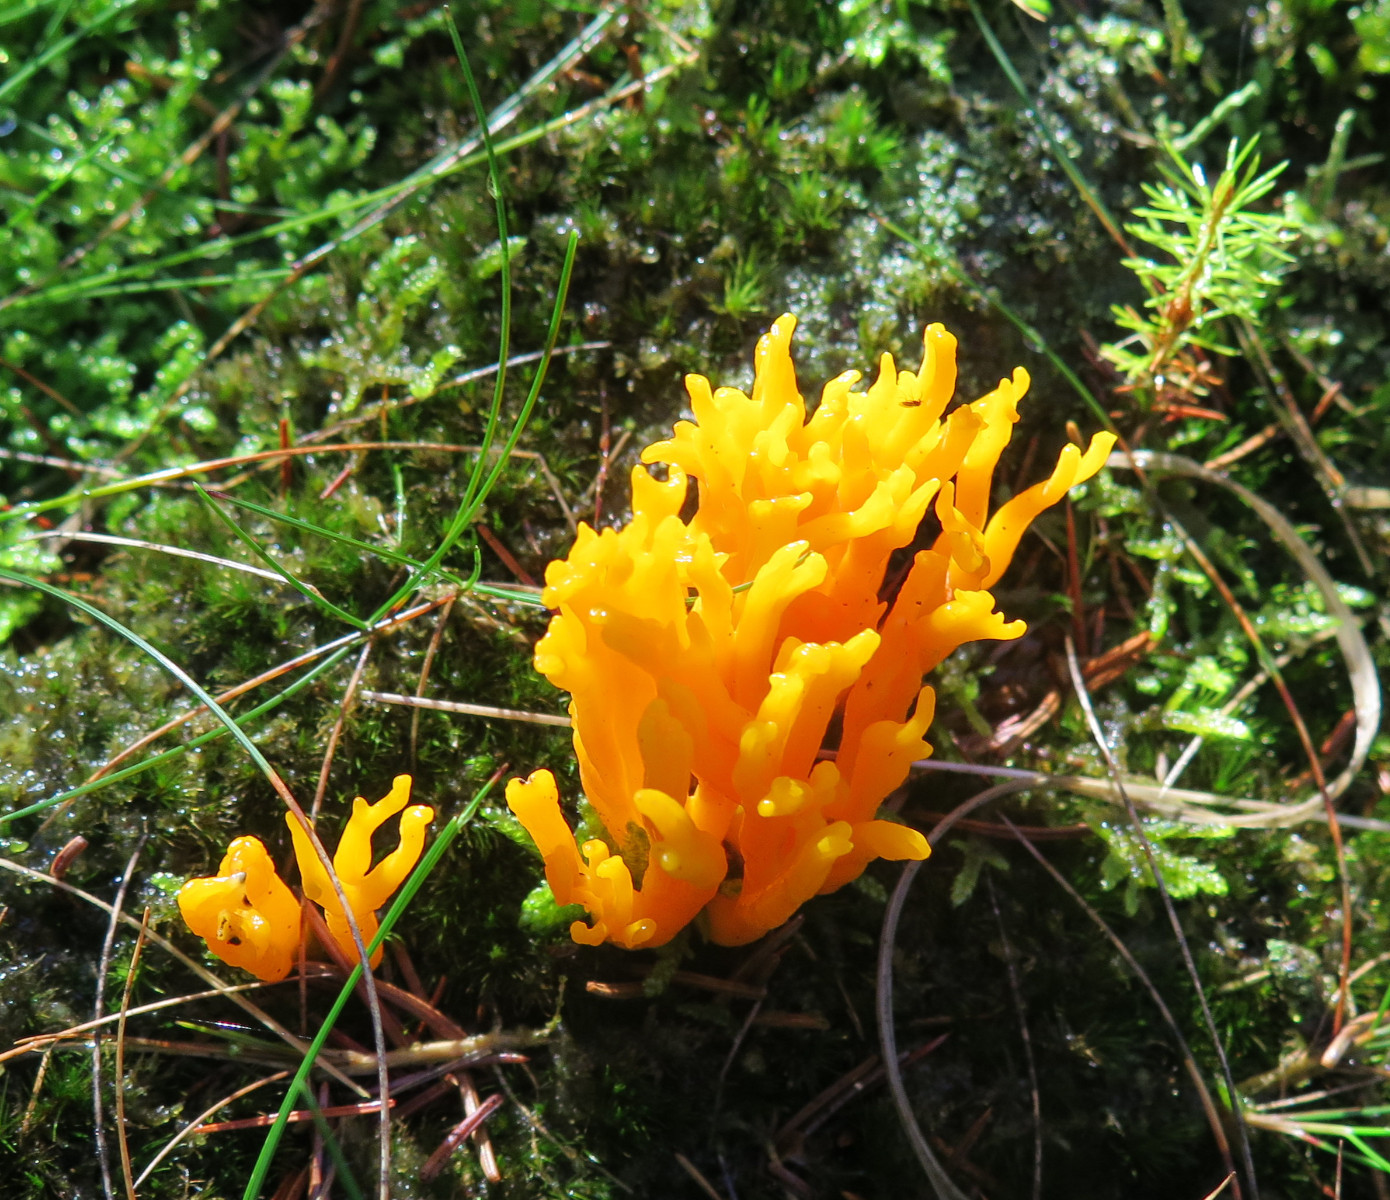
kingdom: Fungi
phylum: Basidiomycota
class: Dacrymycetes
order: Dacrymycetales
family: Dacrymycetaceae
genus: Calocera
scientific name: Calocera viscosa
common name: almindelig guldgaffel
